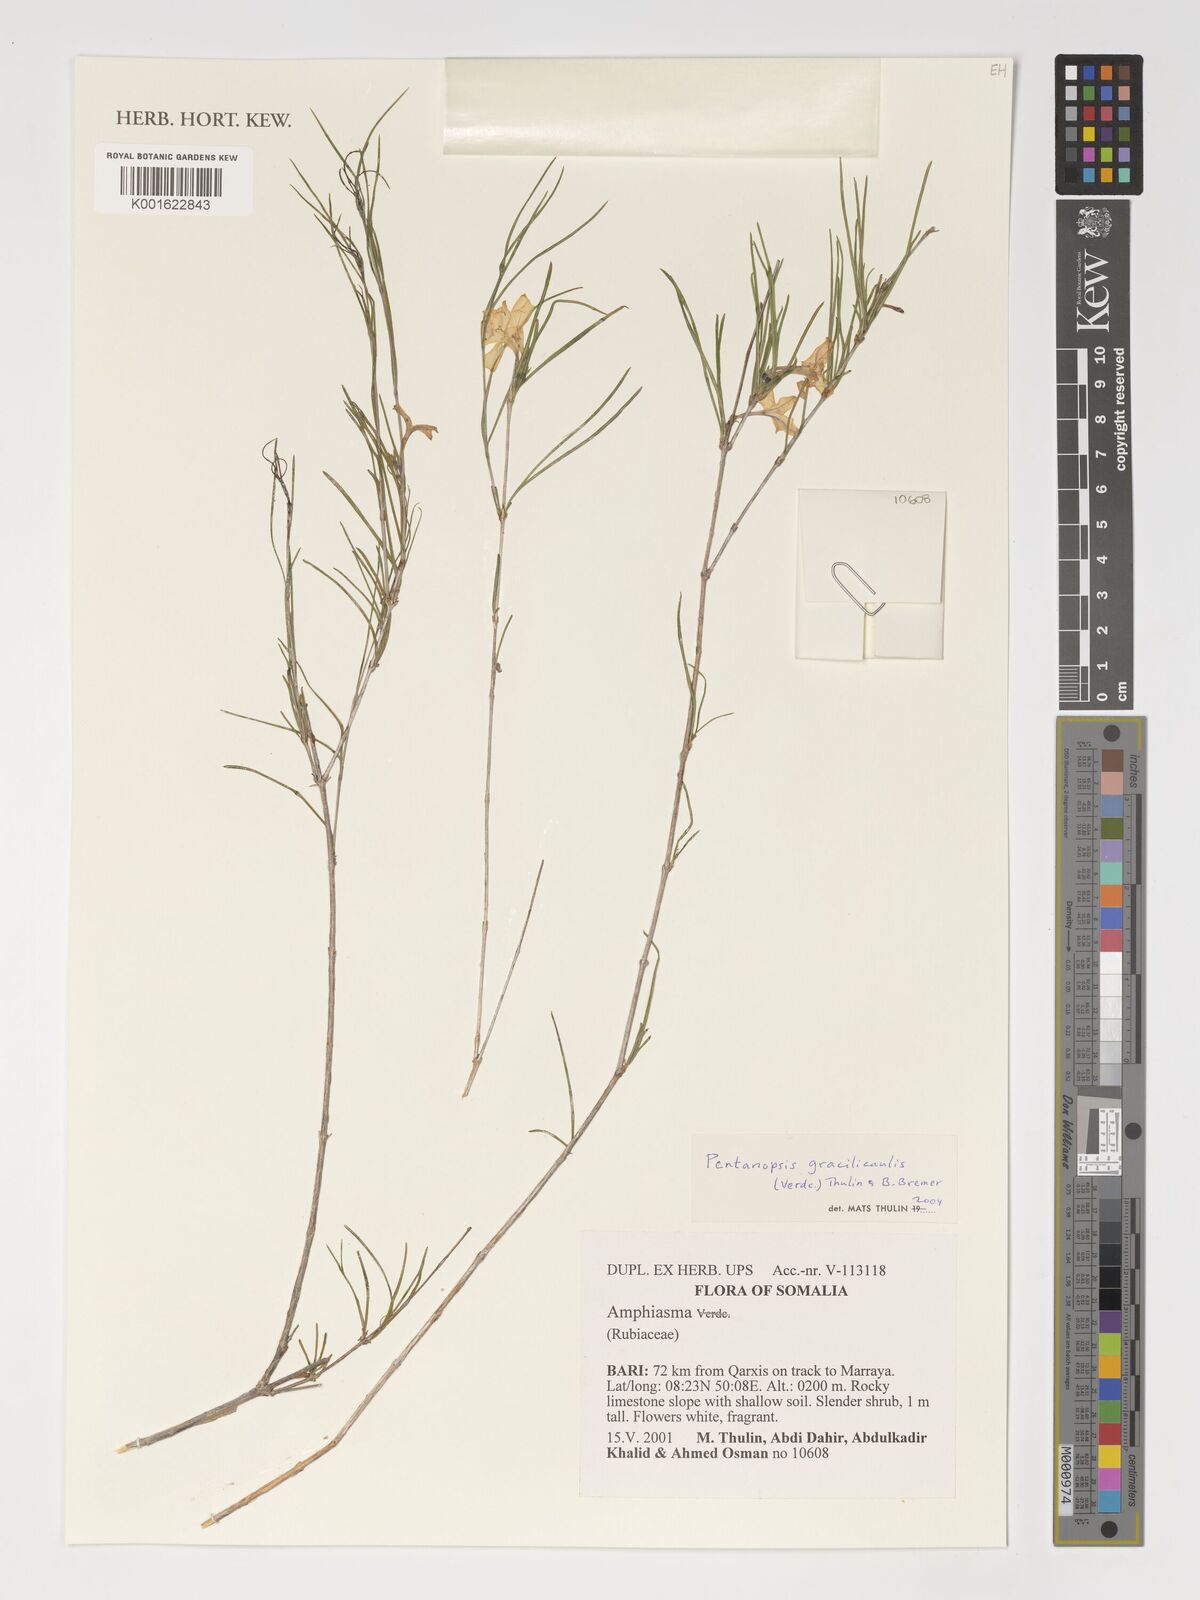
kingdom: Plantae
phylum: Tracheophyta
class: Magnoliopsida
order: Gentianales
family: Rubiaceae
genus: Pentanopsis
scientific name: Pentanopsis gracilicaulis
